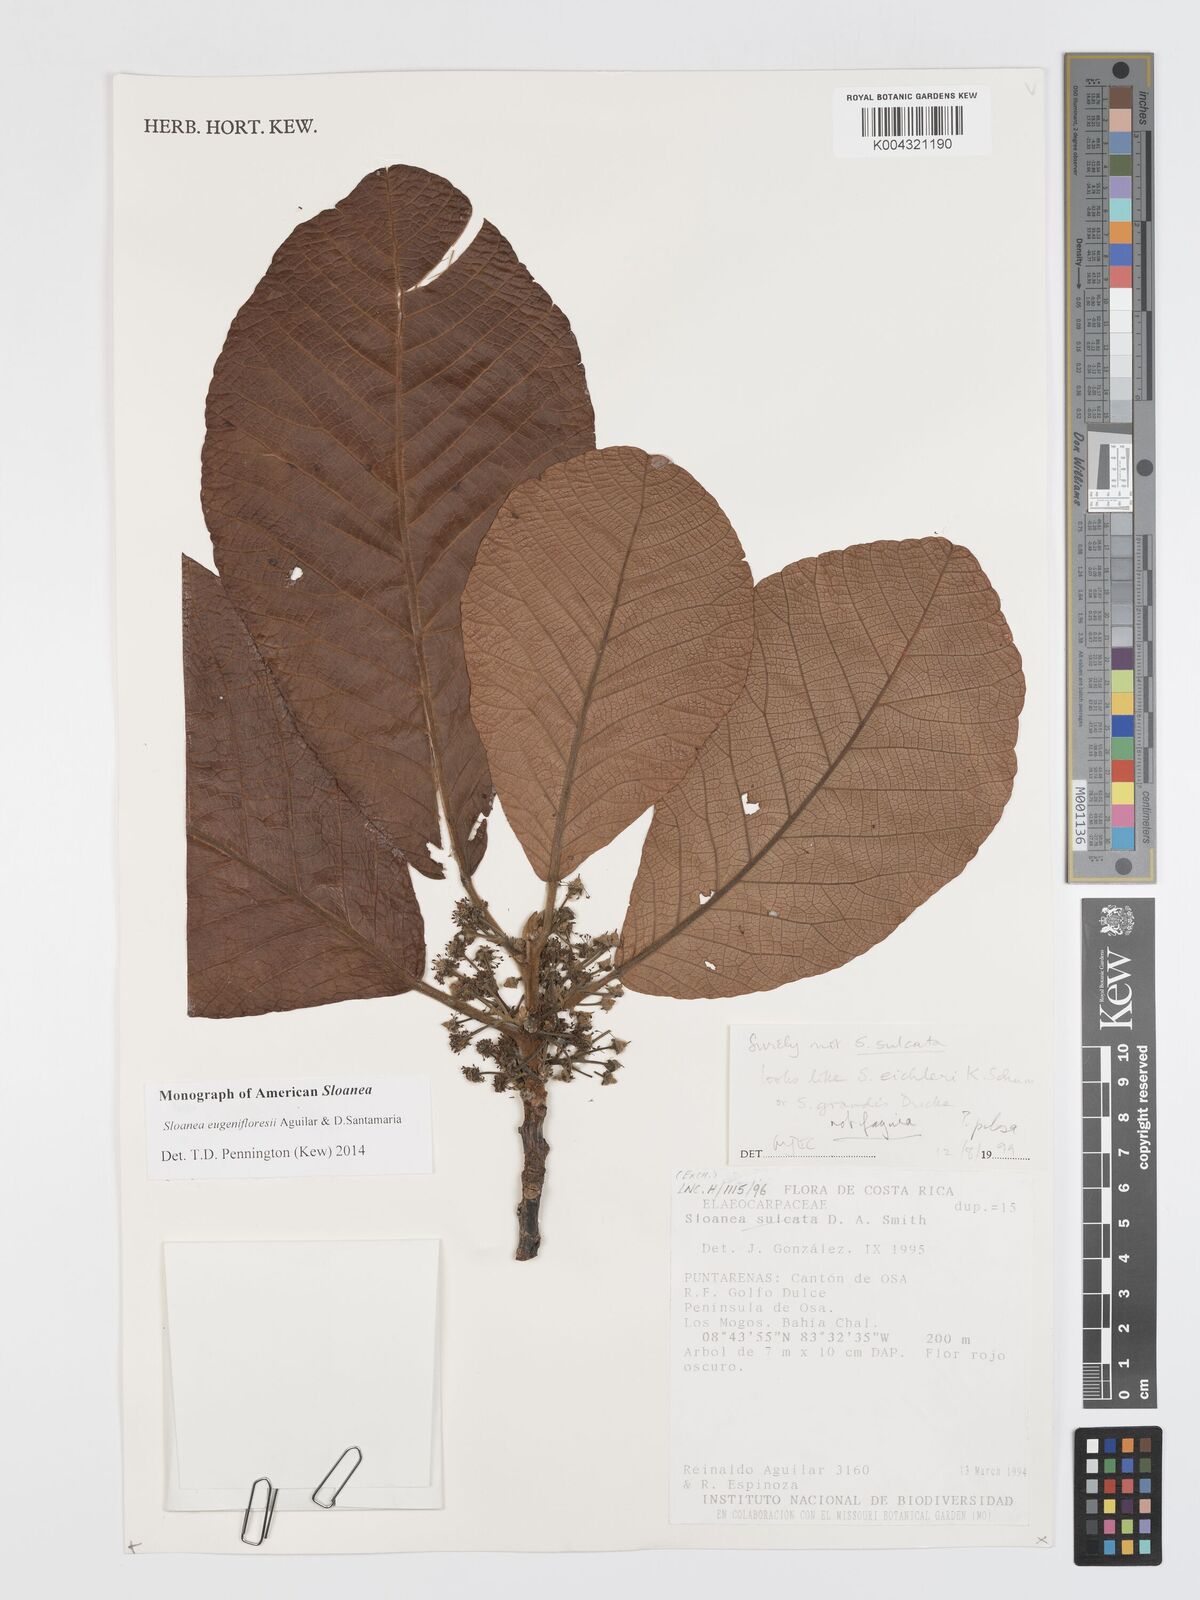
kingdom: Plantae
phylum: Tracheophyta
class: Magnoliopsida
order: Oxalidales
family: Elaeocarpaceae
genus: Sloanea
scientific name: Sloanea eugenifloresiae
